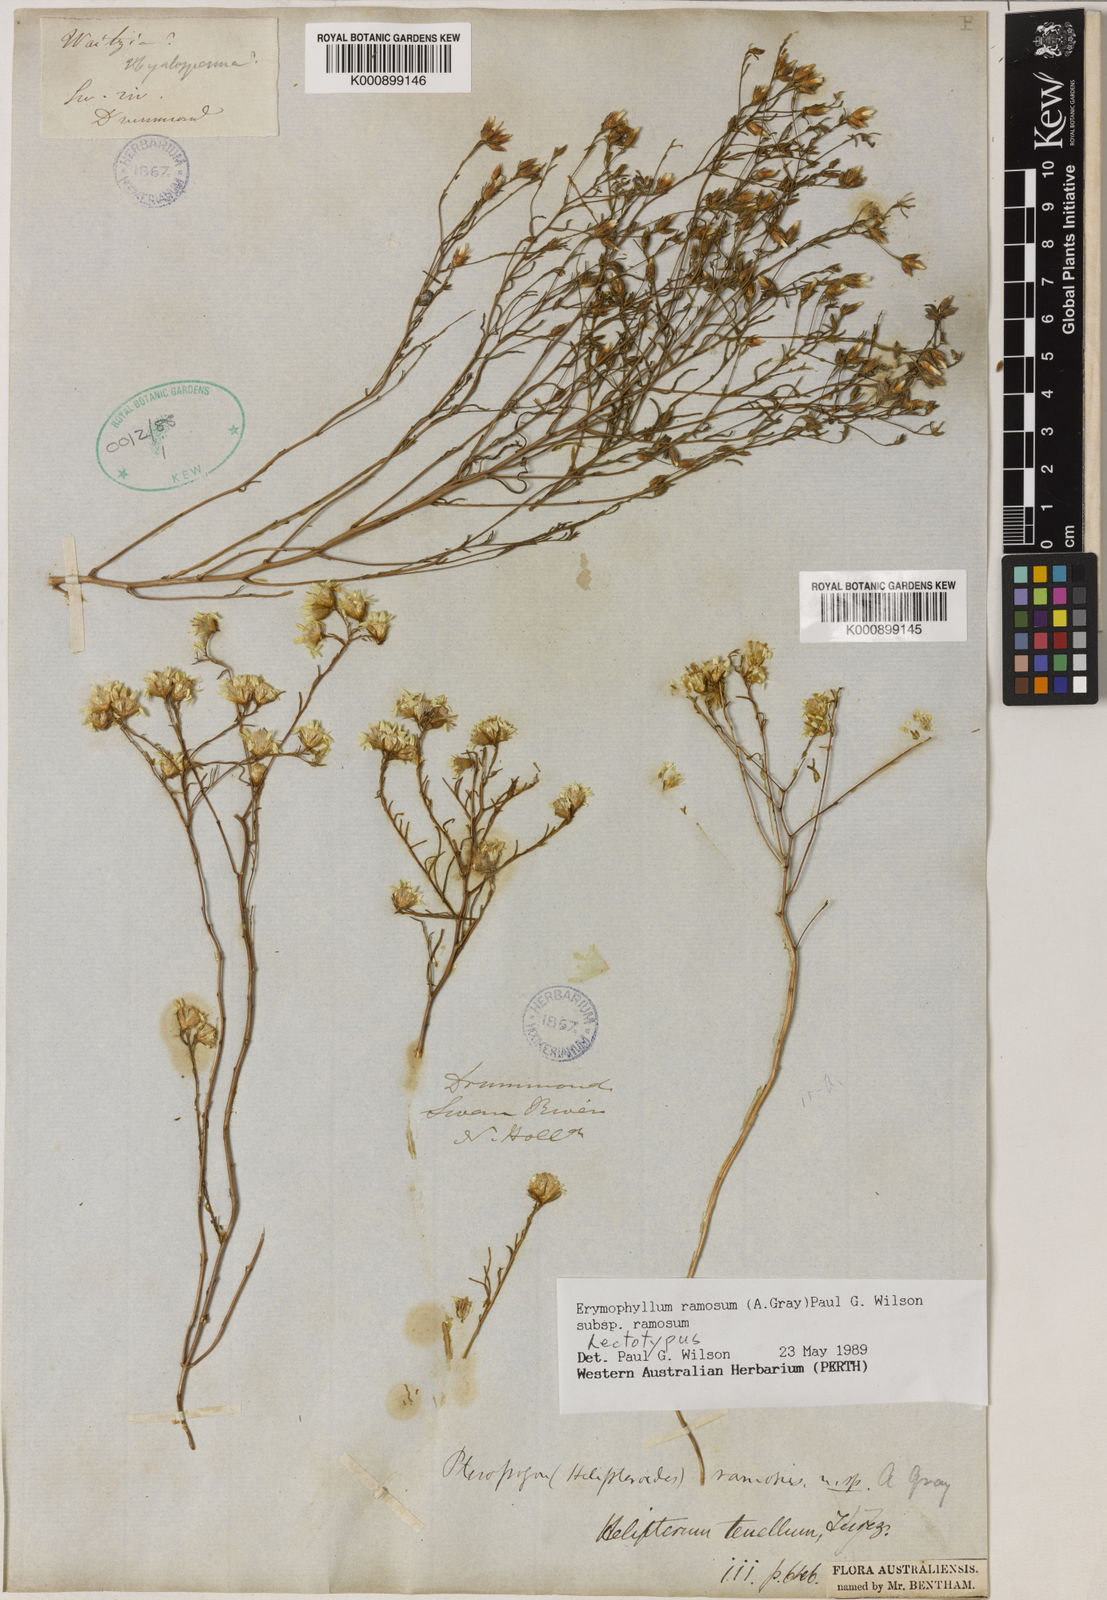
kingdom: Plantae
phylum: Tracheophyta
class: Magnoliopsida
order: Asterales
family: Asteraceae
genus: Erymophyllum
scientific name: Erymophyllum ramosum
